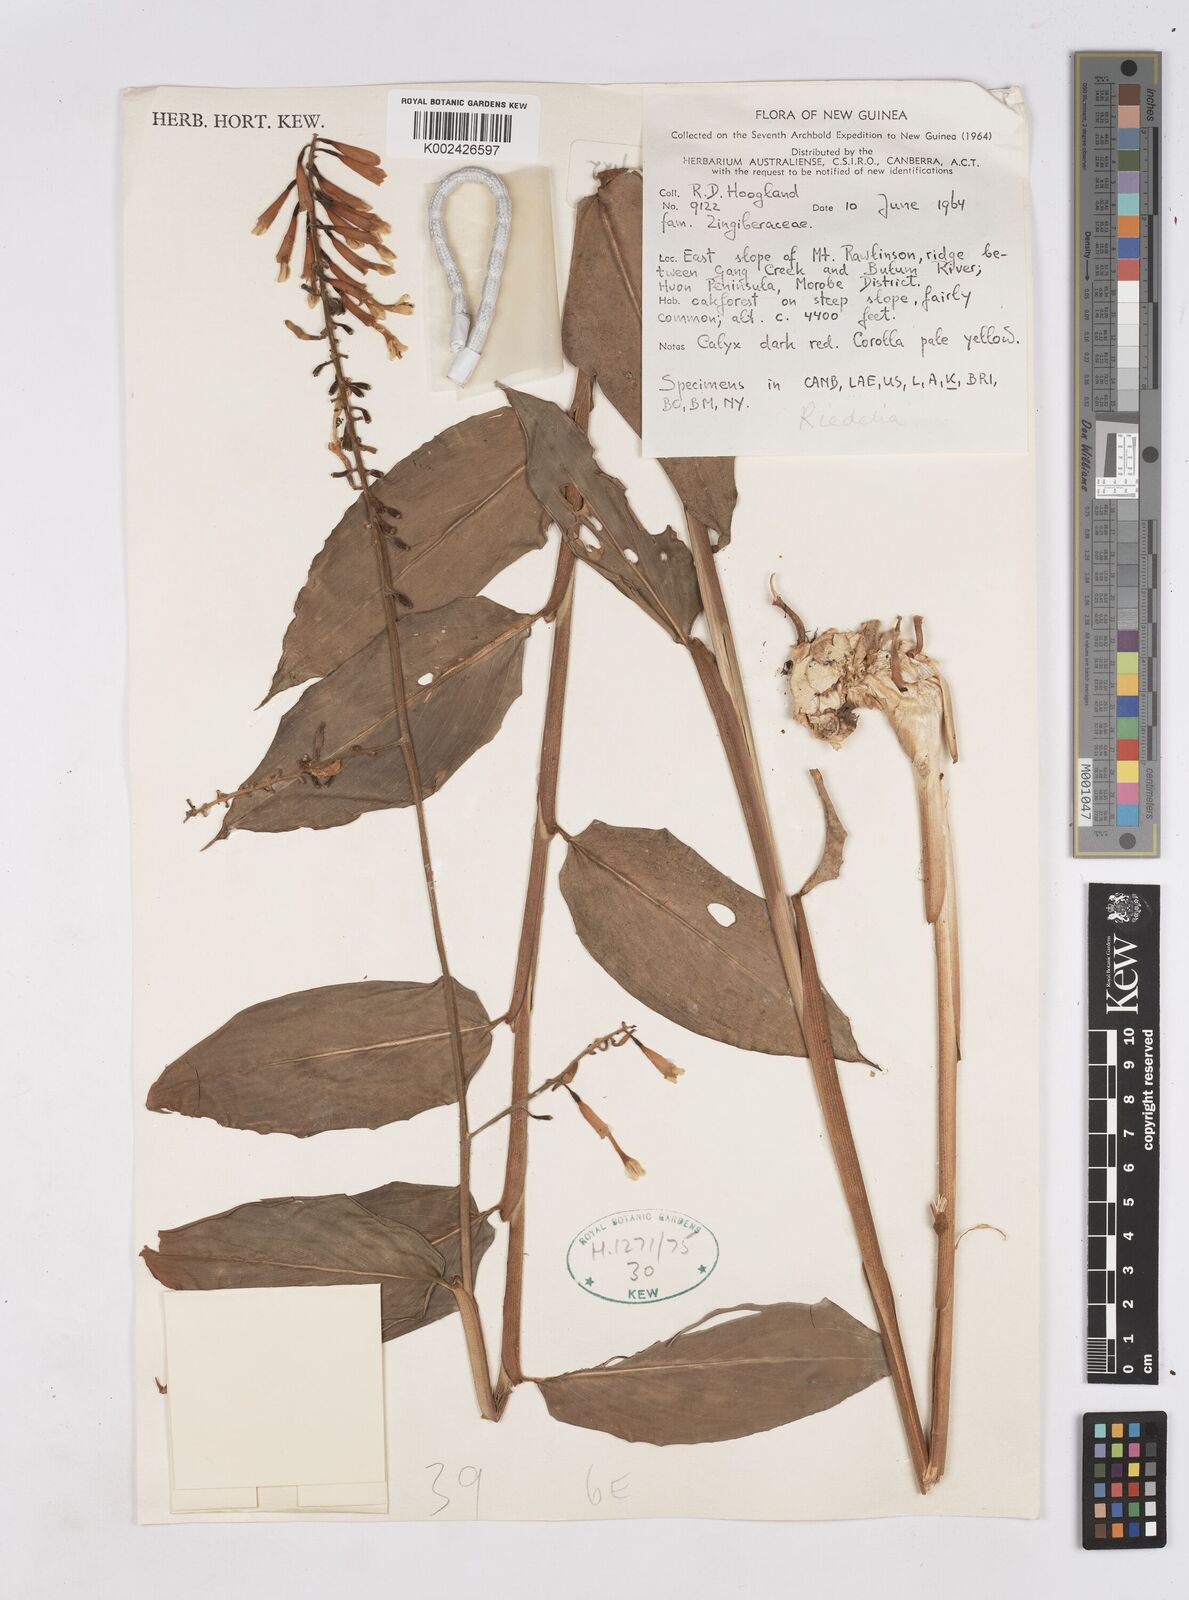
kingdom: Plantae
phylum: Tracheophyta
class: Liliopsida
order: Zingiberales
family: Zingiberaceae
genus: Riedelia
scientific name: Riedelia
